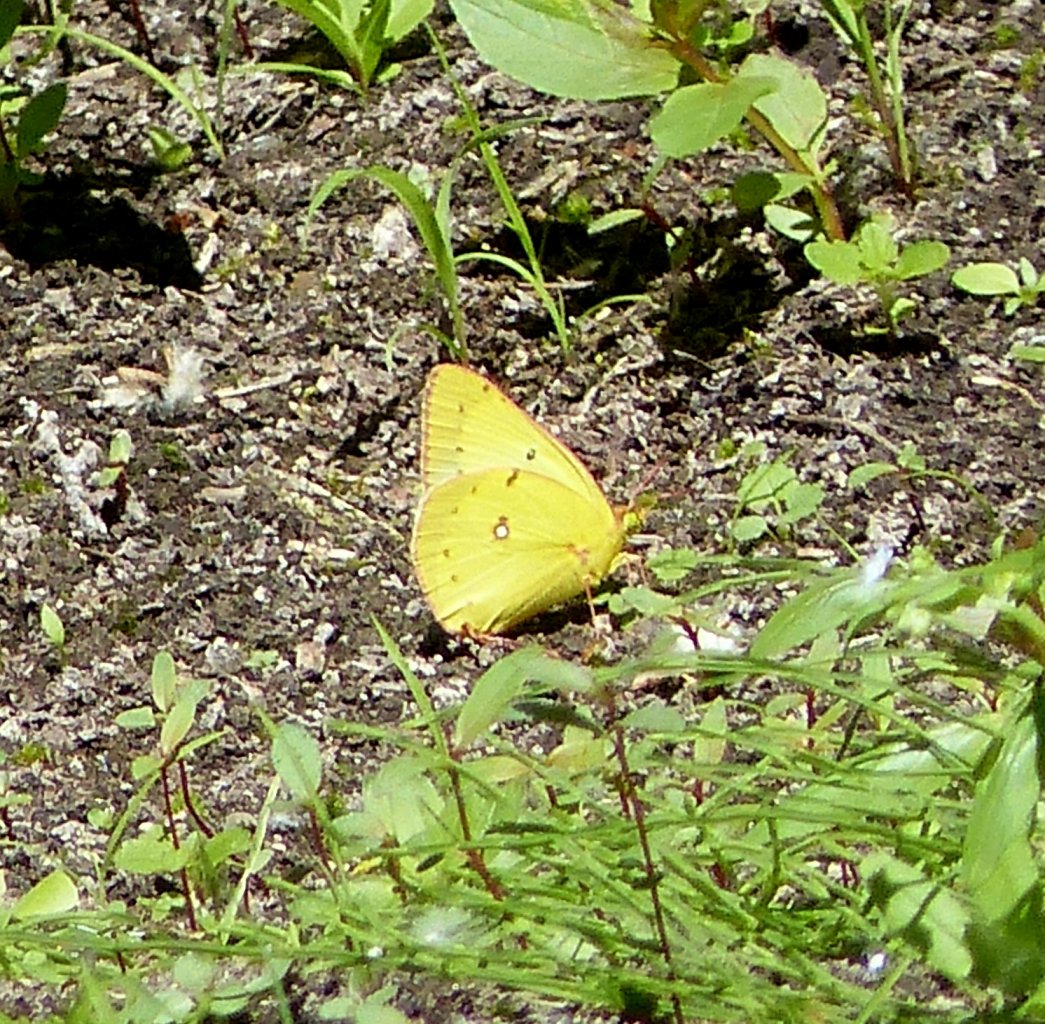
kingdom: Animalia
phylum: Arthropoda
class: Insecta
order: Lepidoptera
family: Pieridae
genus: Colias
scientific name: Colias philodice
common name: Clouded Sulphur
